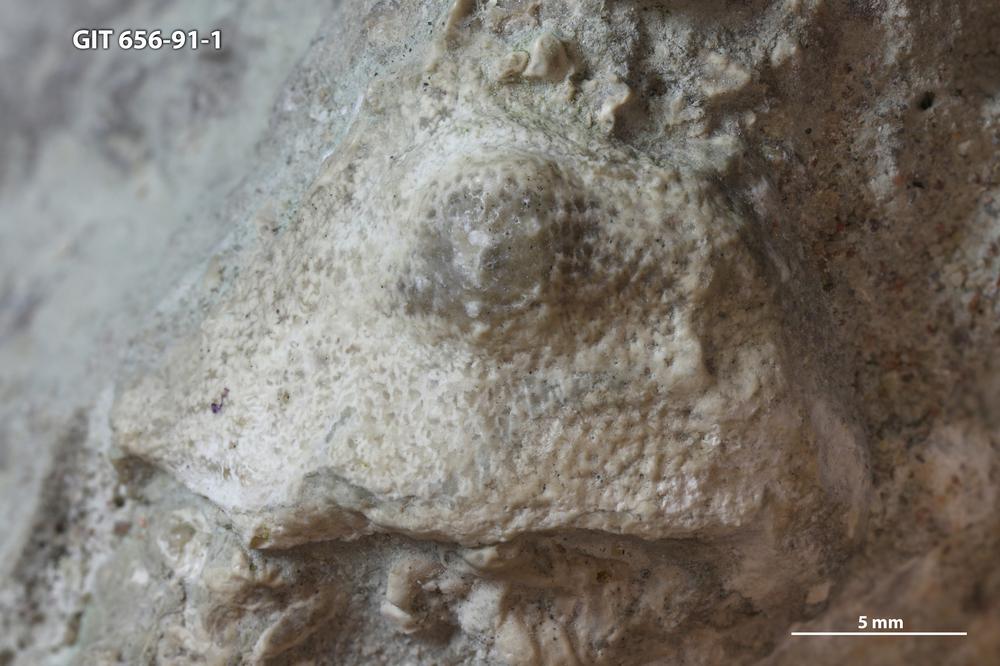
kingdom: Animalia
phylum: Cnidaria
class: Anthozoa
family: Theciidae
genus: Thecia
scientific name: Thecia
